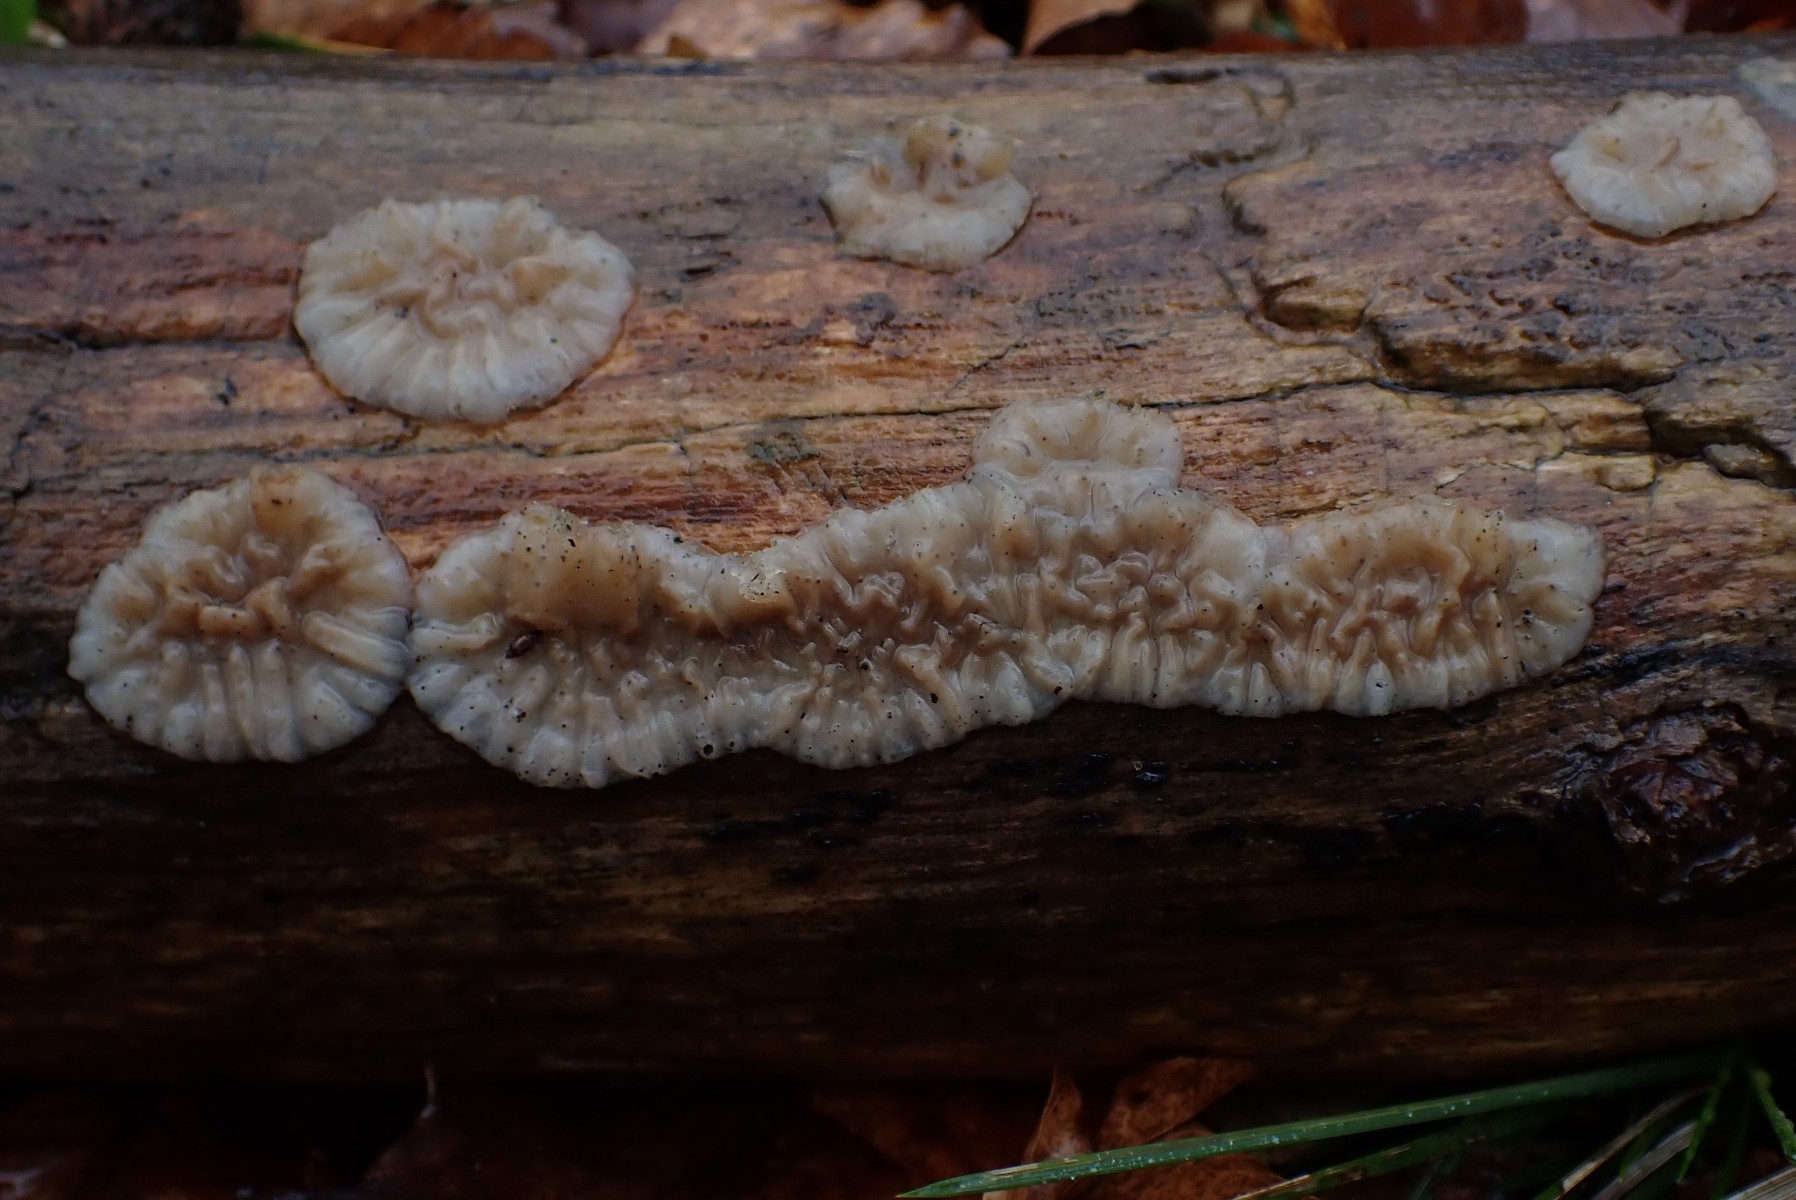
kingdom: Fungi
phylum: Basidiomycota
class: Agaricomycetes
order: Auriculariales
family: Auriculariaceae
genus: Exidia
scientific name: Exidia thuretiana
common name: hvidlig bævretop
